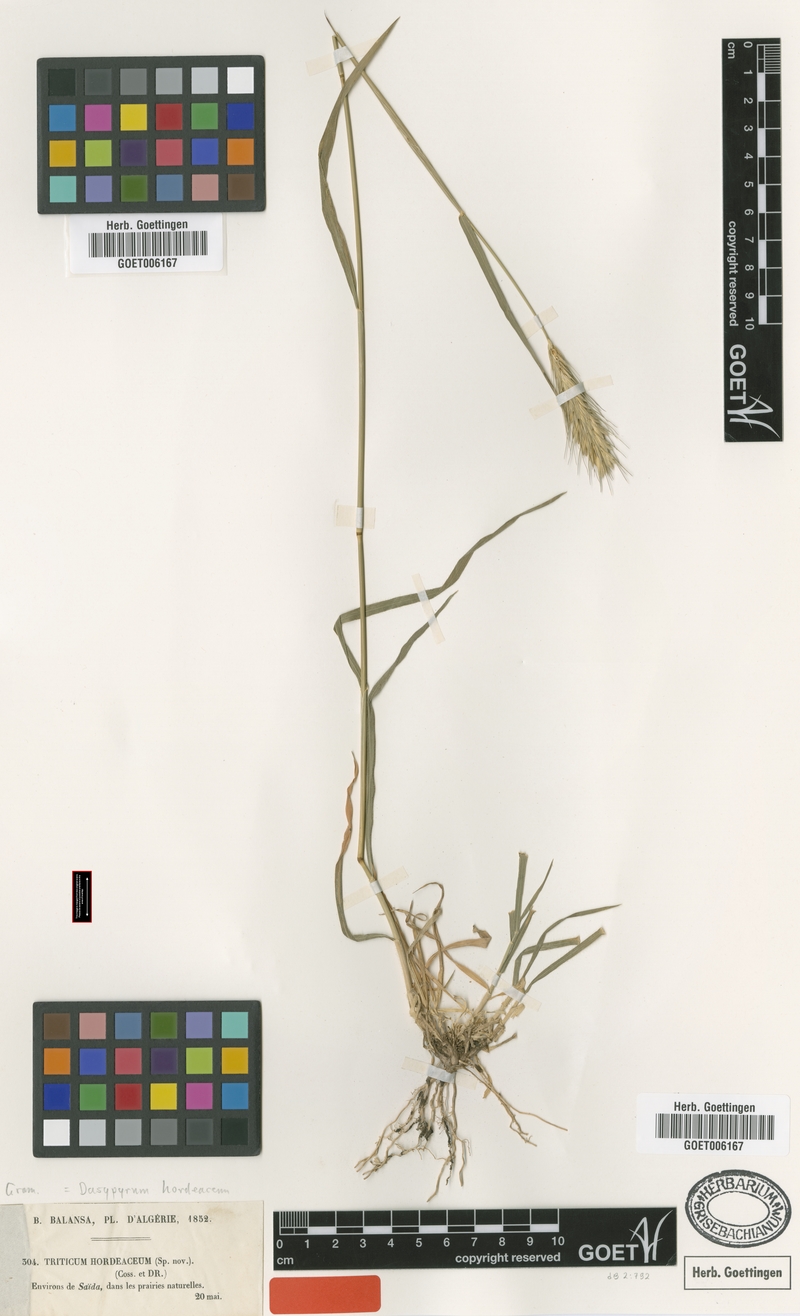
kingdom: Plantae
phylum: Tracheophyta
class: Liliopsida
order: Poales
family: Poaceae
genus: Dasypyrum
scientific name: Dasypyrum hordeaceum
